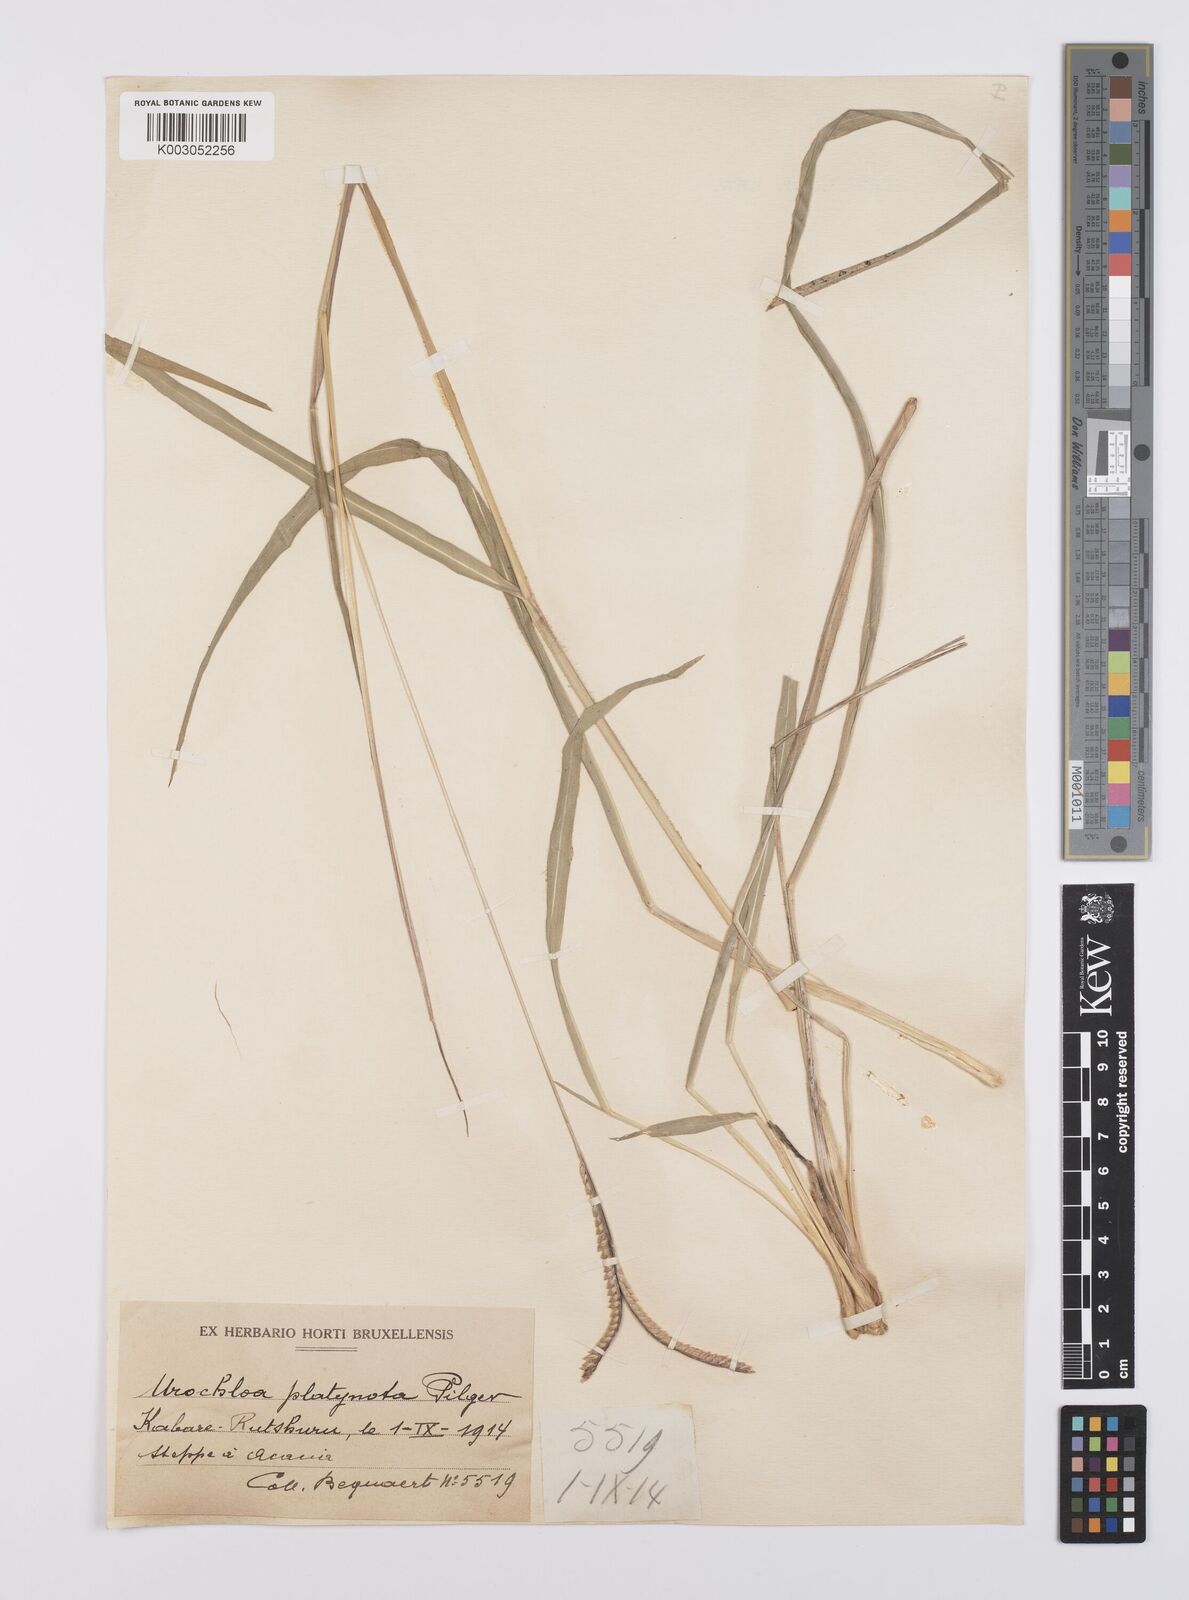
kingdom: Plantae
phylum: Tracheophyta
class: Liliopsida
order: Poales
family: Poaceae
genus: Urochloa
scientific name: Urochloa platynota
